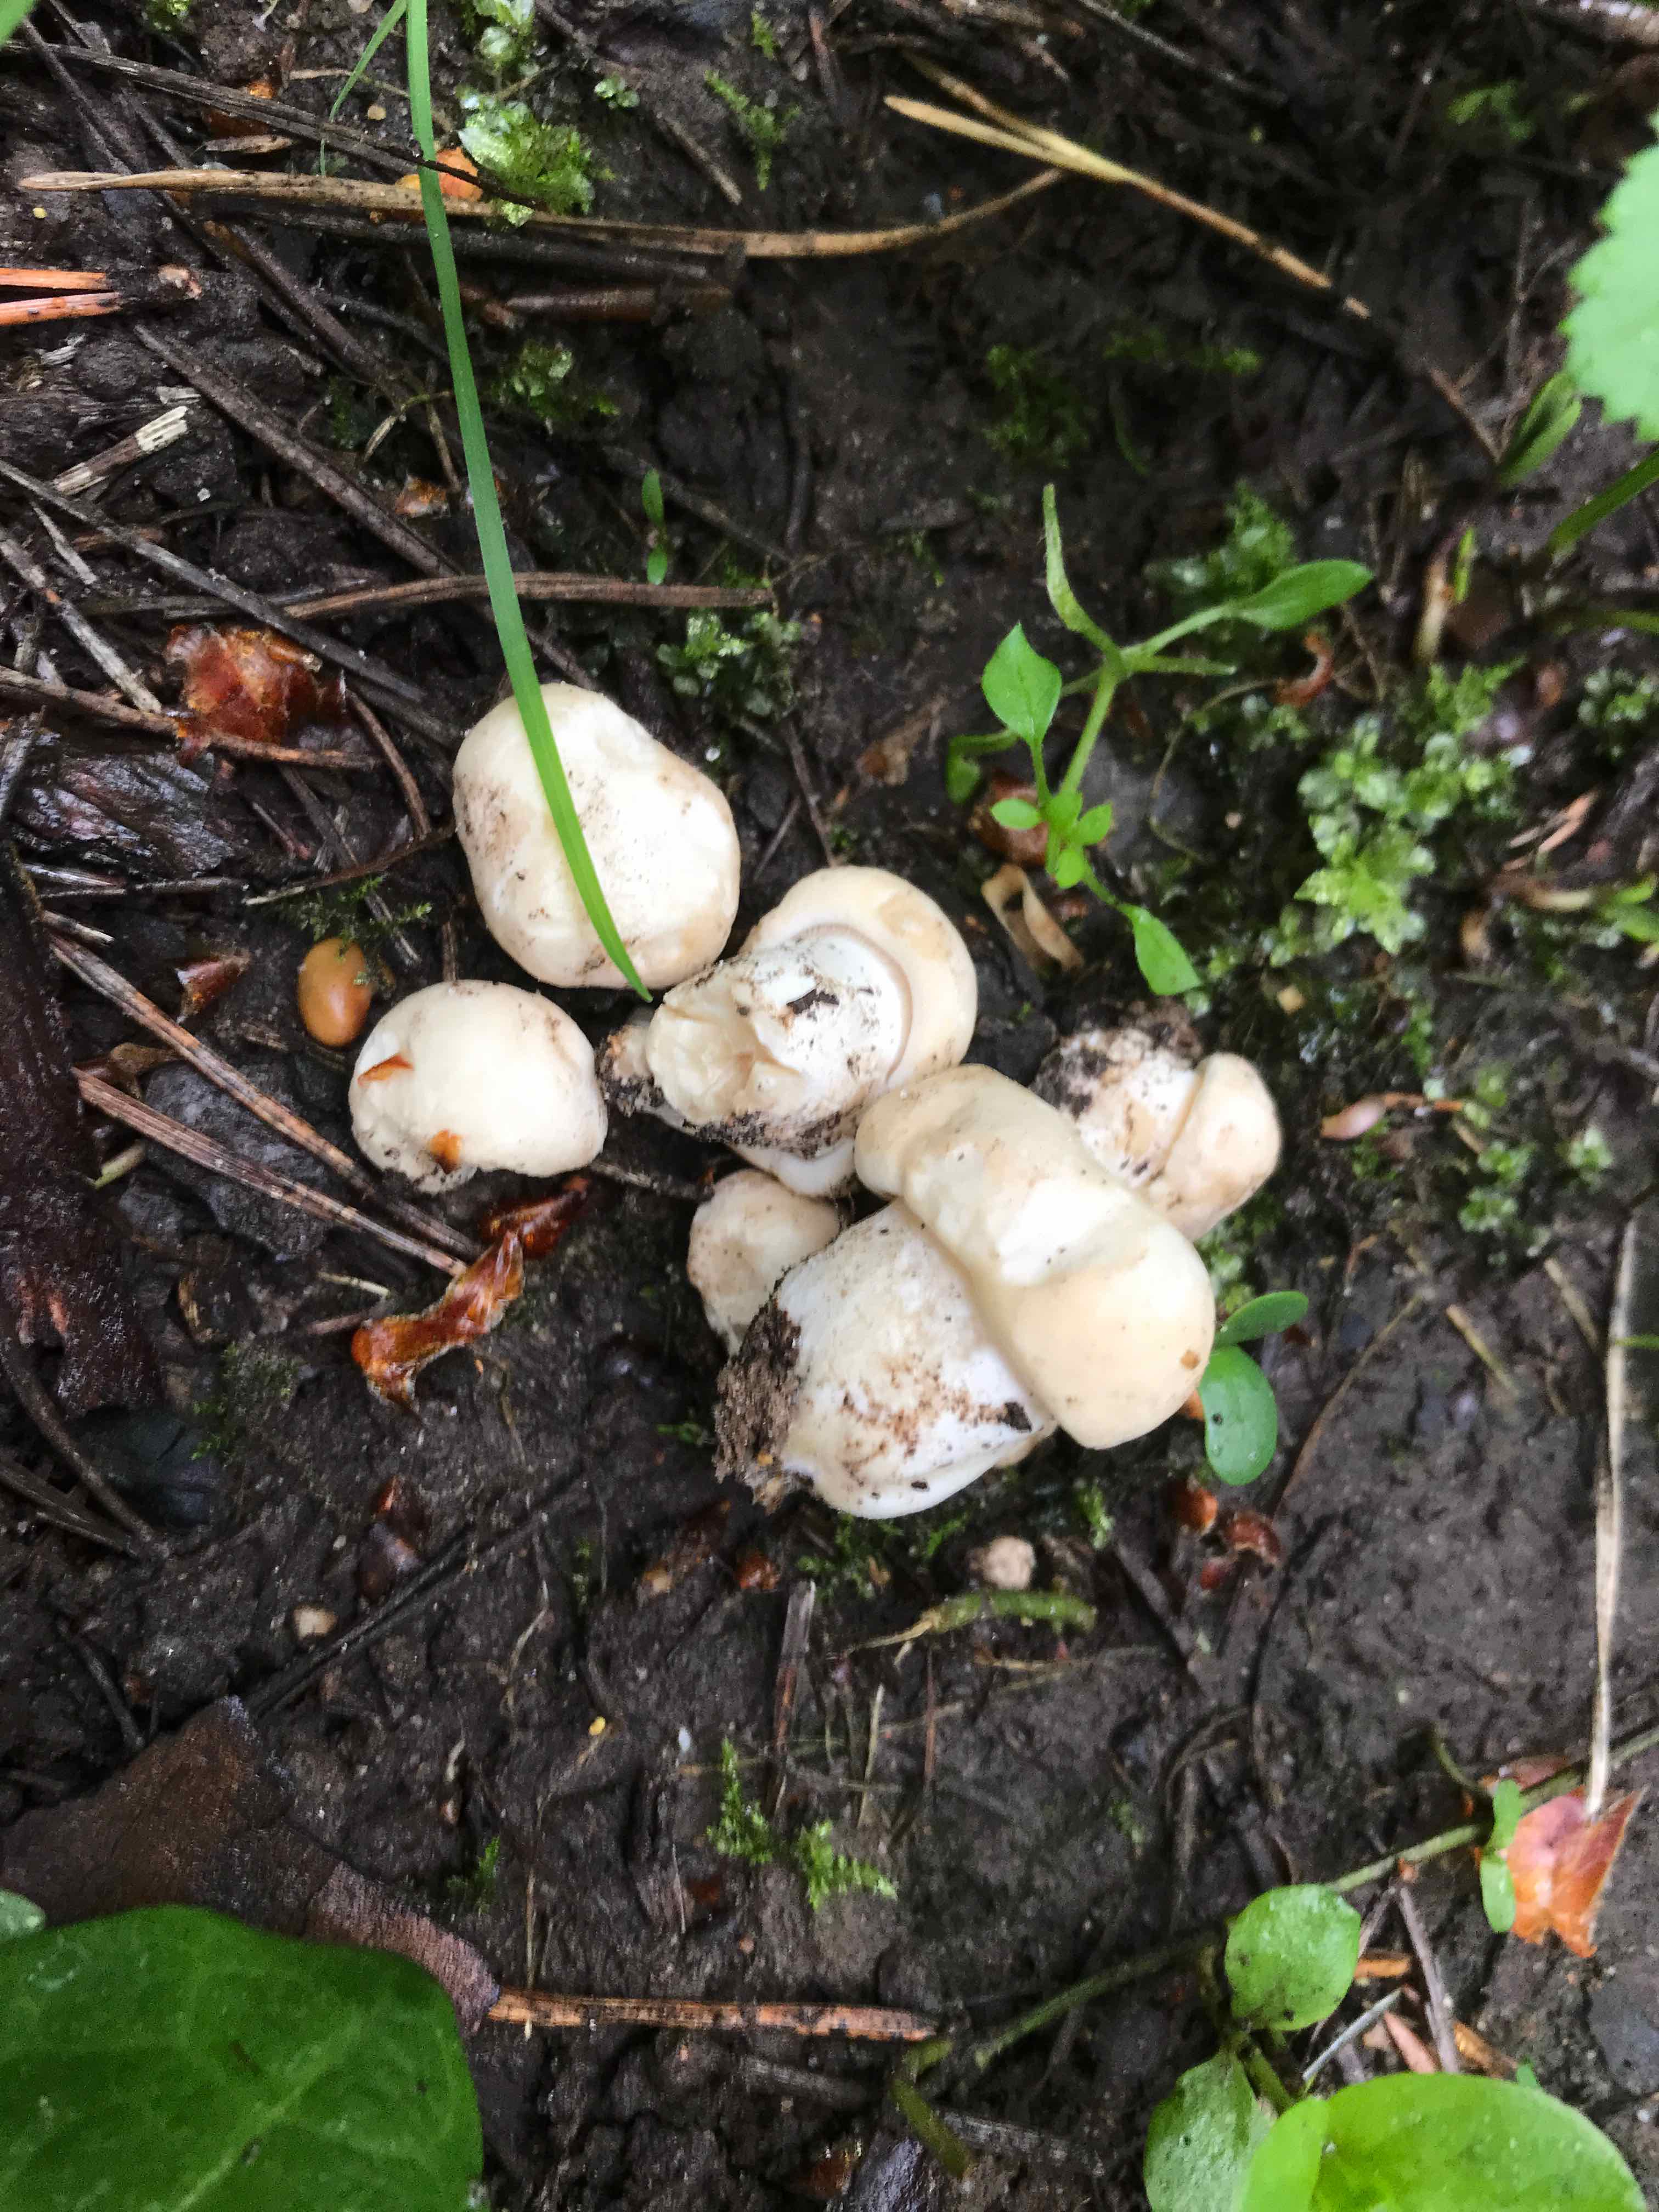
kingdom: Fungi
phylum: Basidiomycota
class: Agaricomycetes
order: Agaricales
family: Lyophyllaceae
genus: Calocybe
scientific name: Calocybe gambosa
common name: vårmusseron
